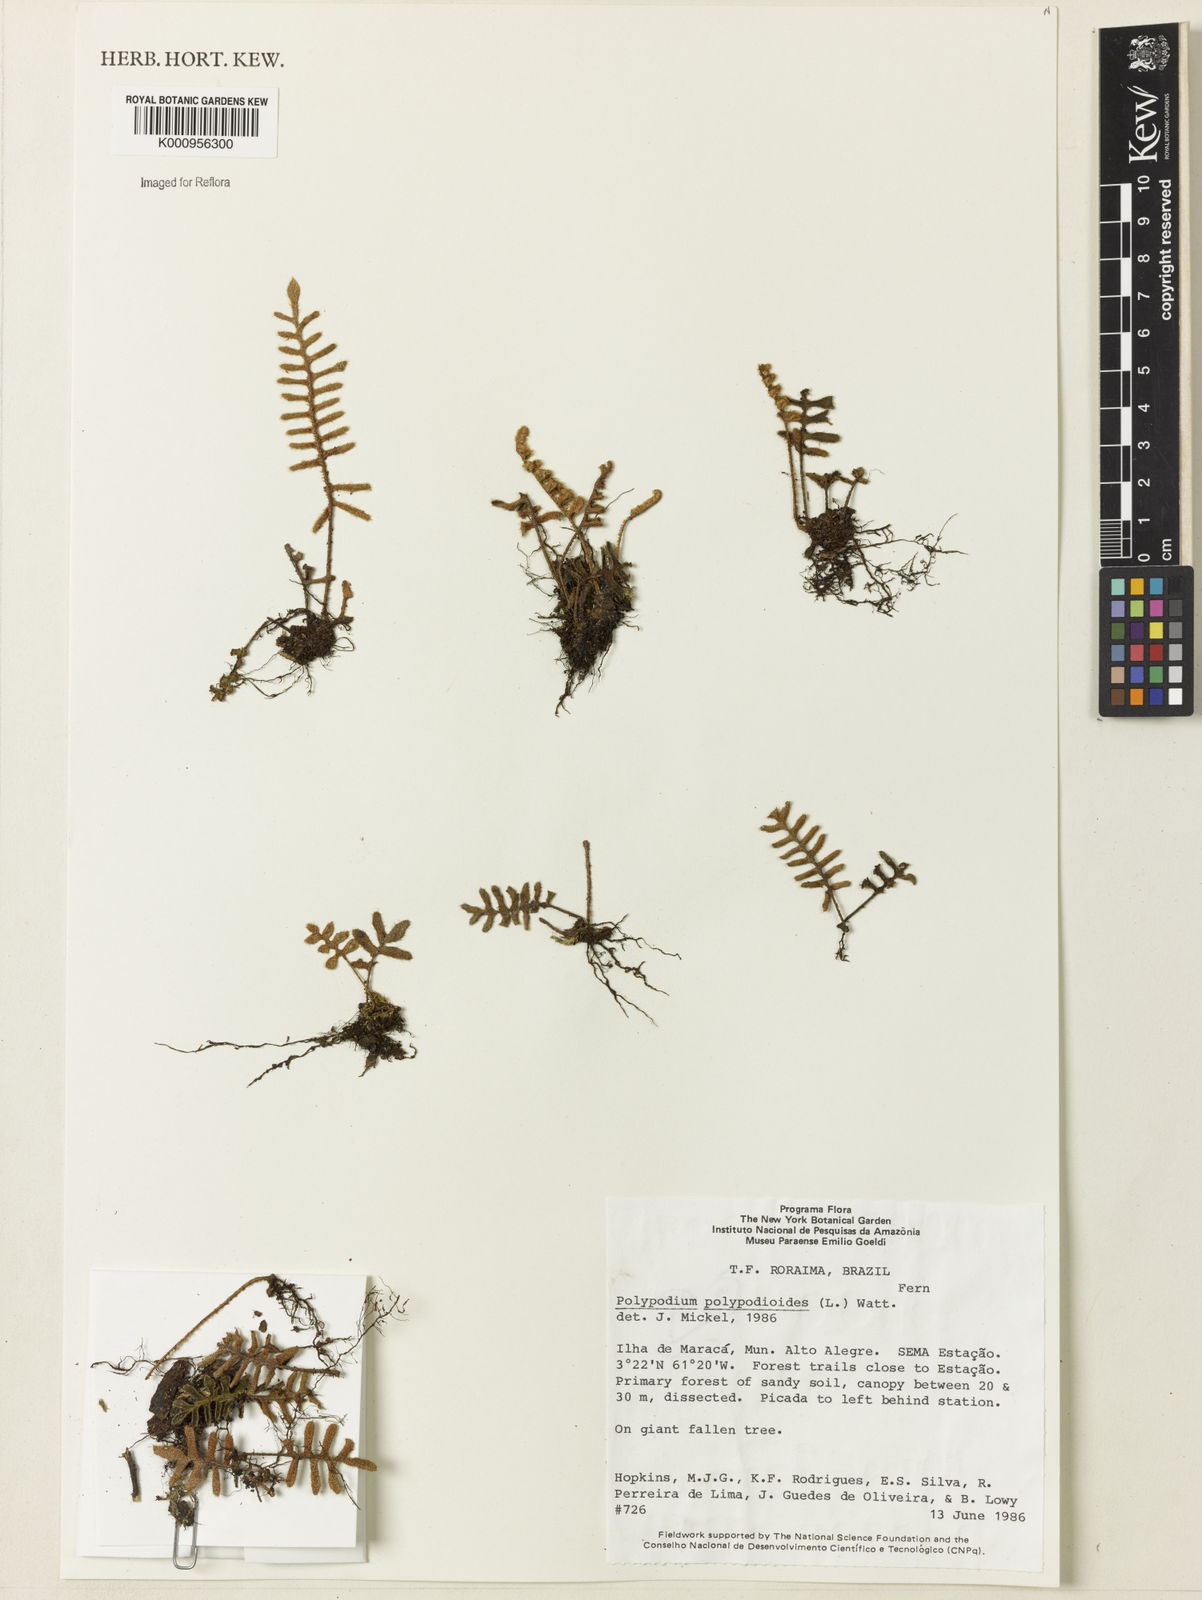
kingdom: Plantae
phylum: Tracheophyta
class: Polypodiopsida
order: Polypodiales
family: Polypodiaceae
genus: Pleopeltis
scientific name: Pleopeltis polypodioides
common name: Resurrection fern
